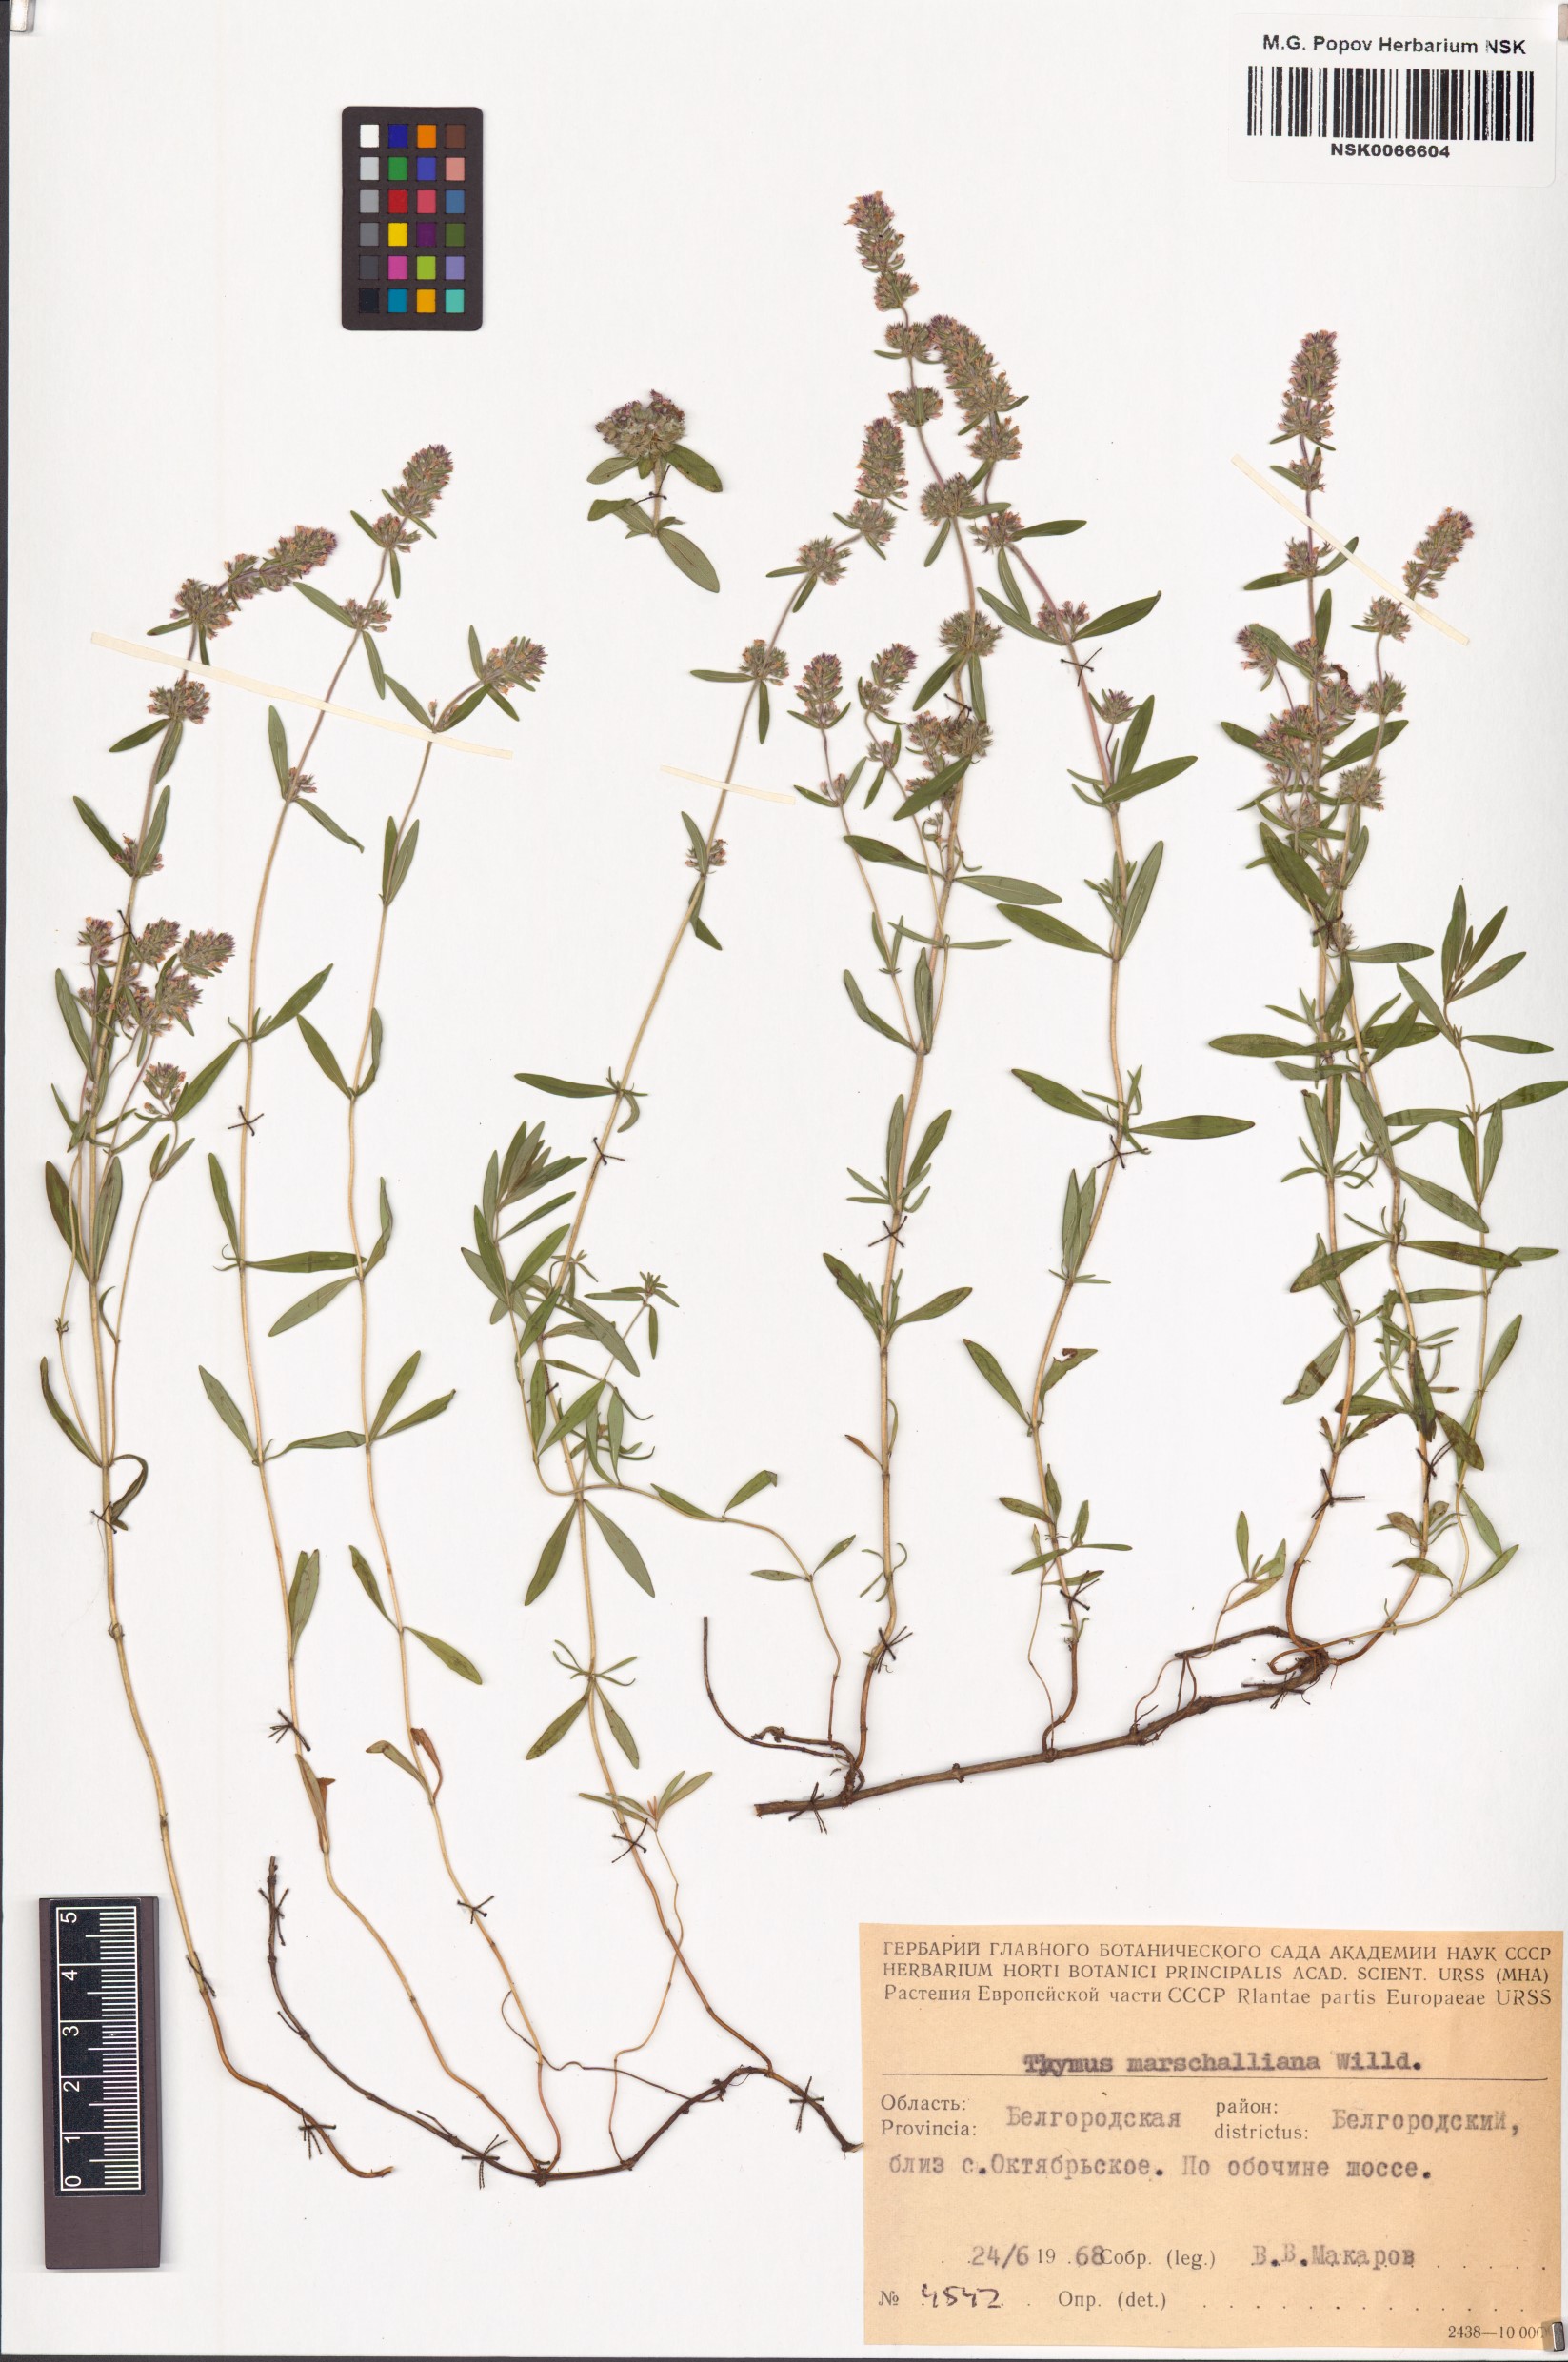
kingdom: Plantae
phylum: Tracheophyta
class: Magnoliopsida
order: Lamiales
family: Lamiaceae
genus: Thymus
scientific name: Thymus pannonicus
